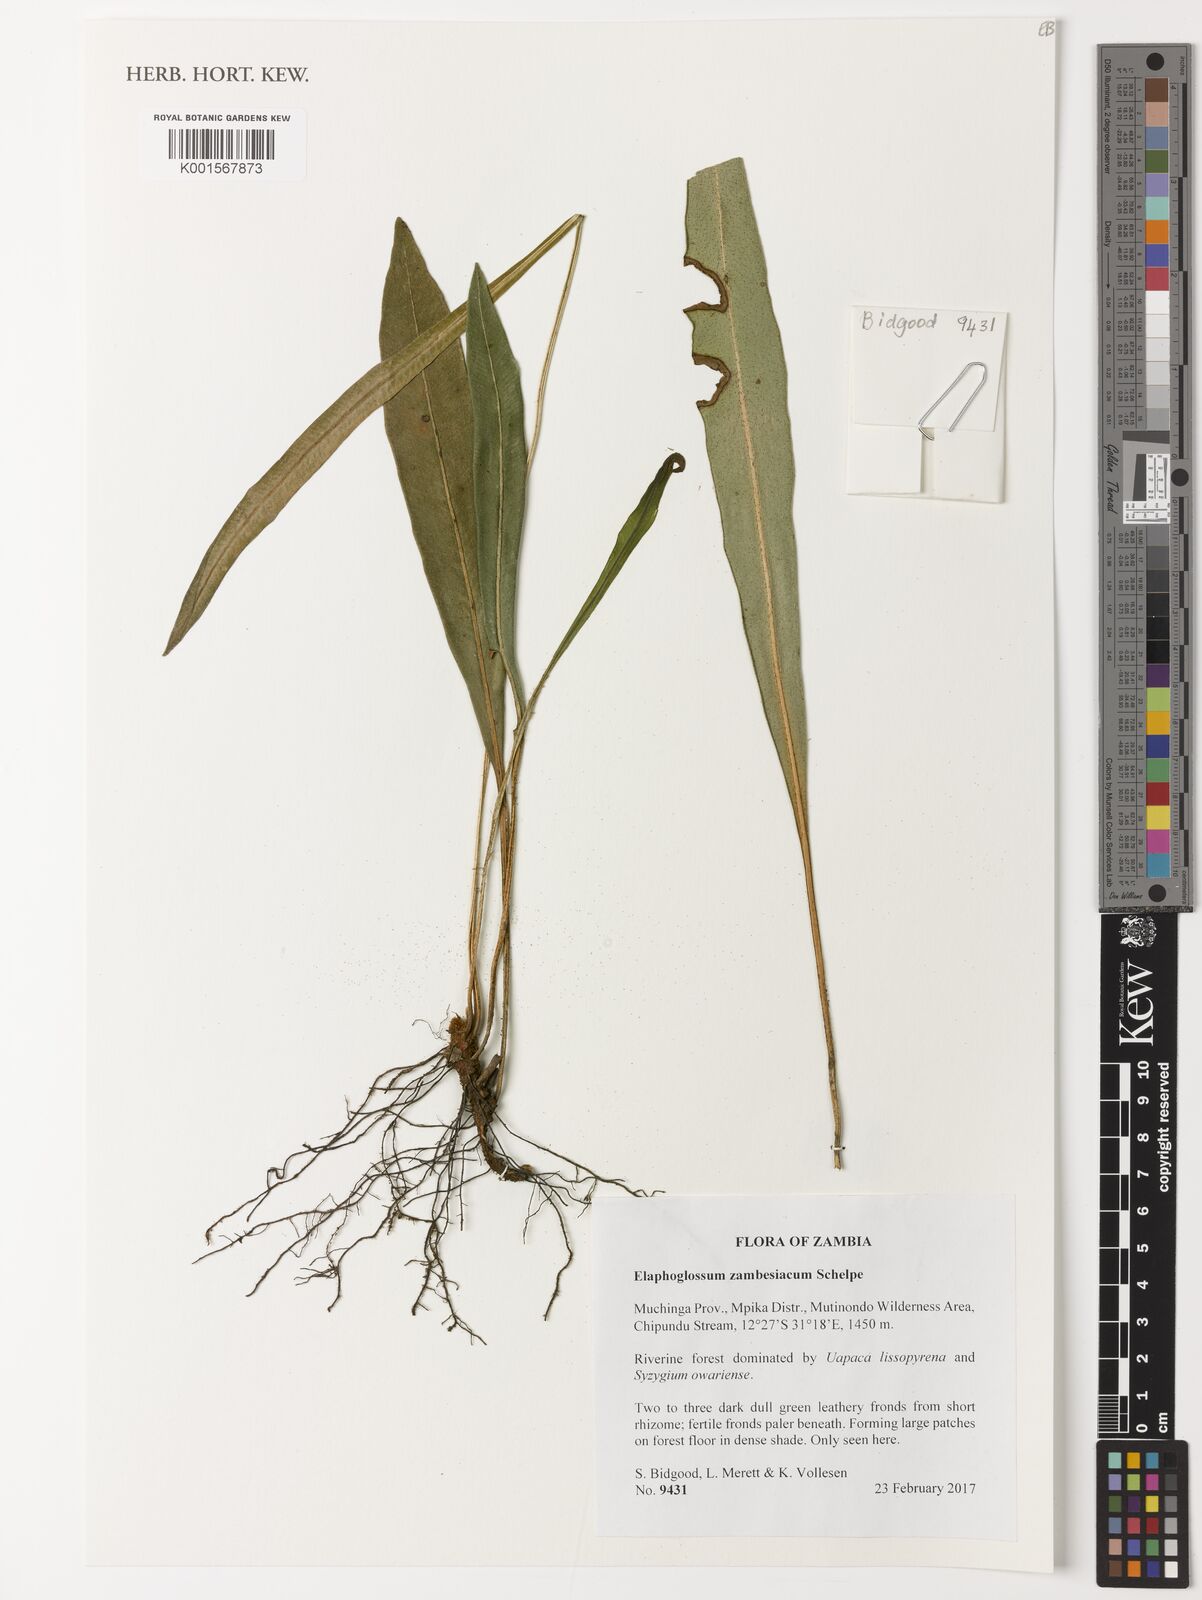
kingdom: Plantae
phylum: Tracheophyta
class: Polypodiopsida
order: Polypodiales
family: Dryopteridaceae
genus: Elaphoglossum
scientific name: Elaphoglossum zambesiacum
